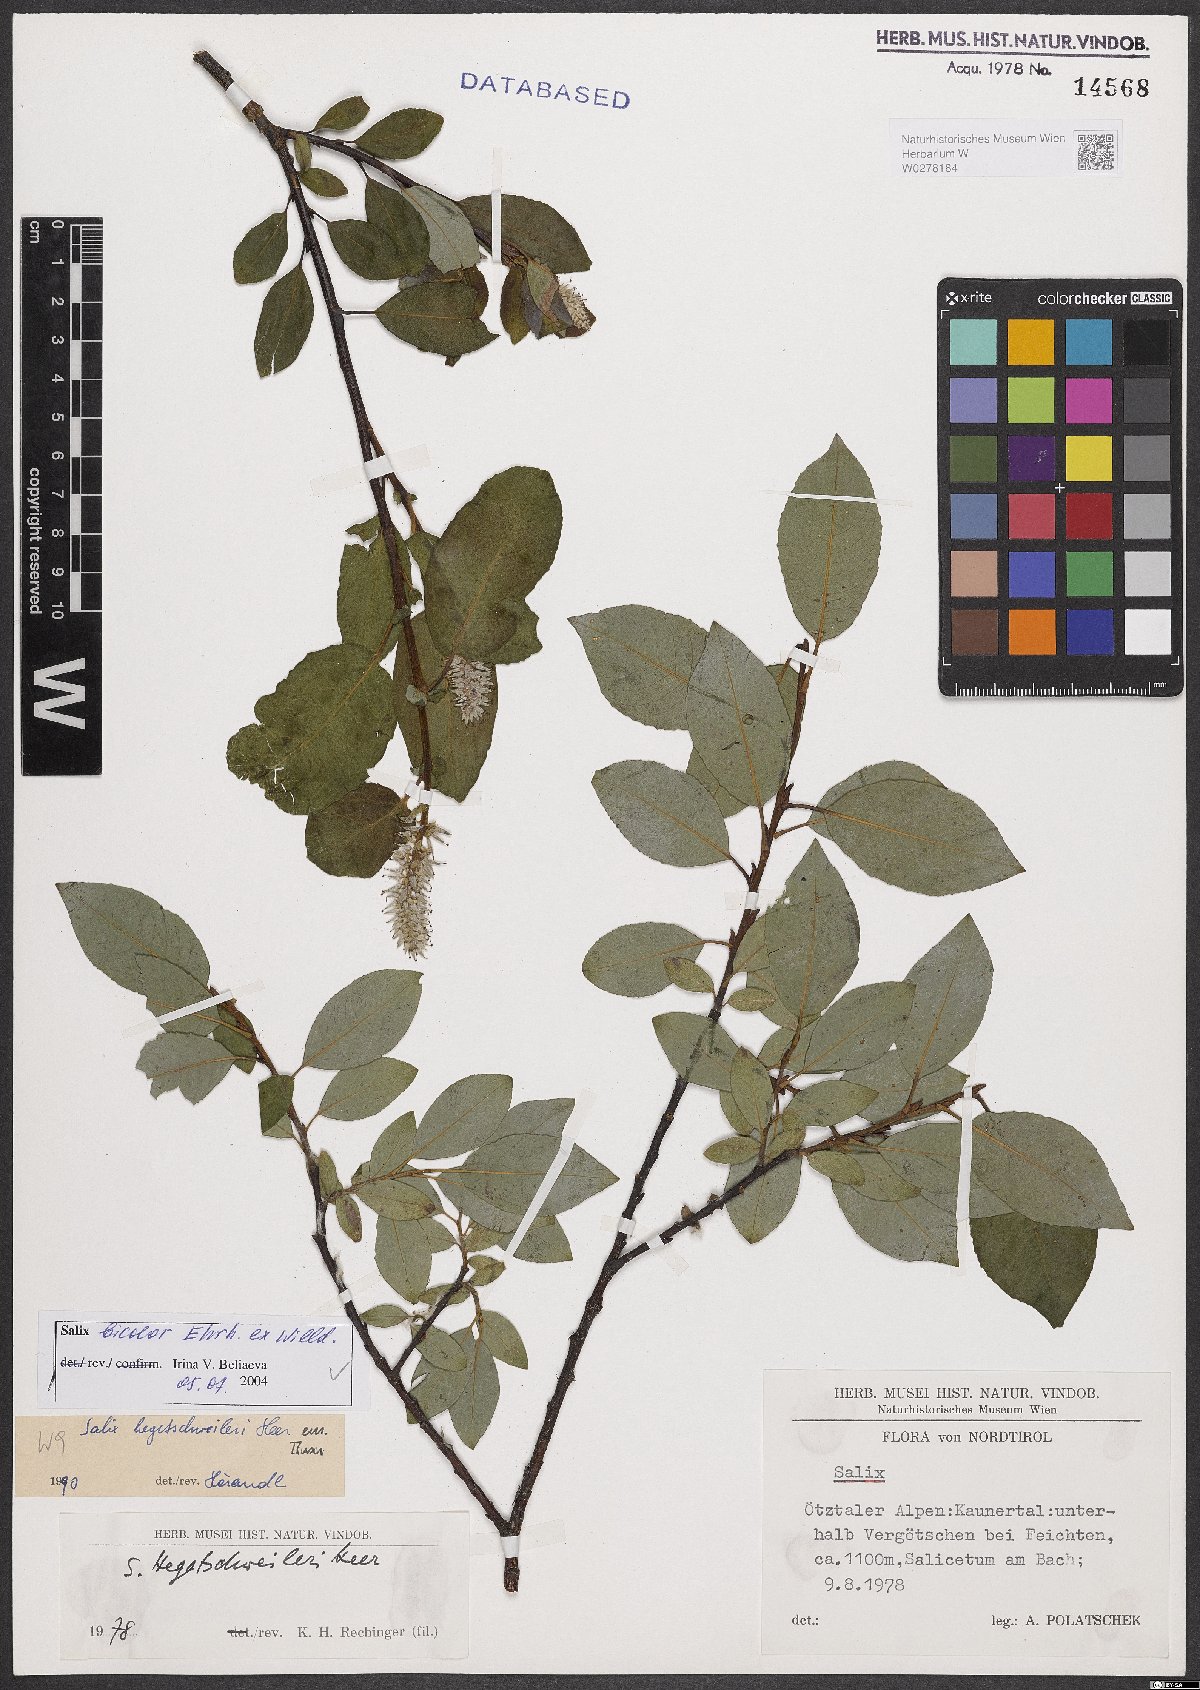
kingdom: Plantae
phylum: Tracheophyta
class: Magnoliopsida
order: Malpighiales
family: Salicaceae
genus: Salix
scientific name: Salix bicolor
